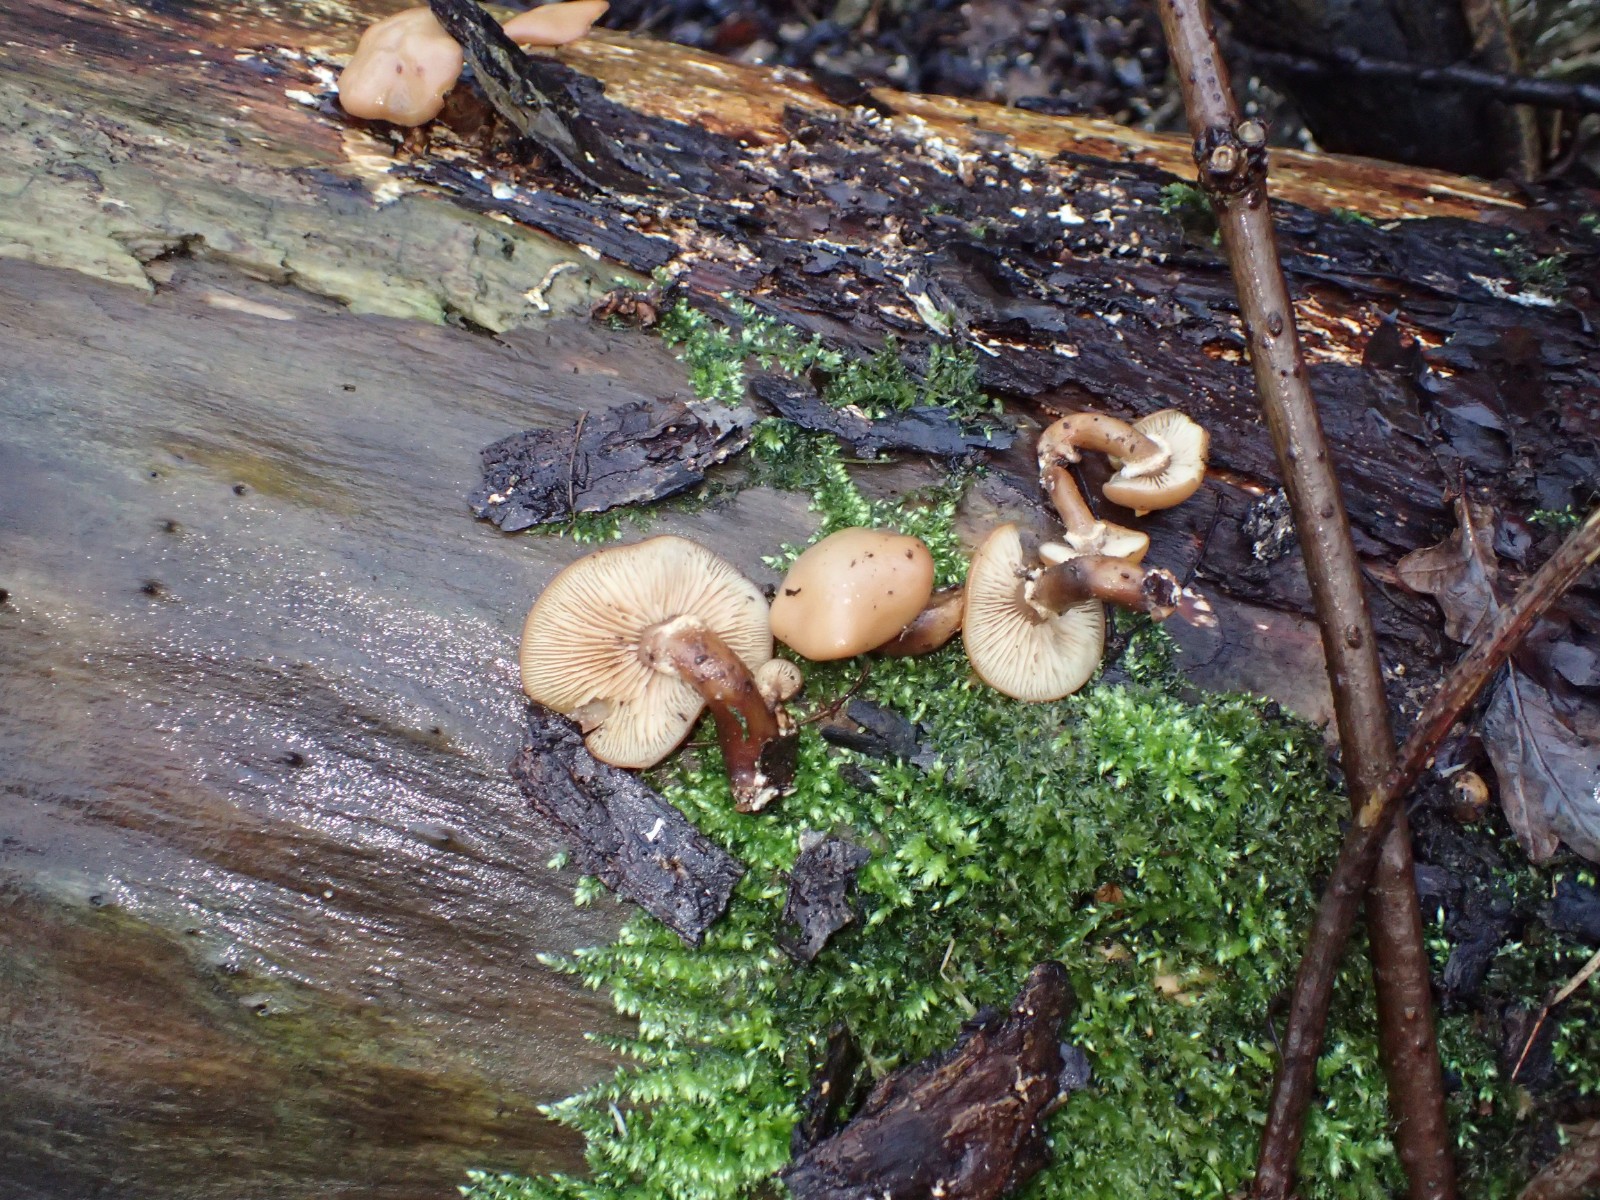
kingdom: Fungi
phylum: Basidiomycota
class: Agaricomycetes
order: Agaricales
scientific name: Agaricales
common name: champignonordenen
